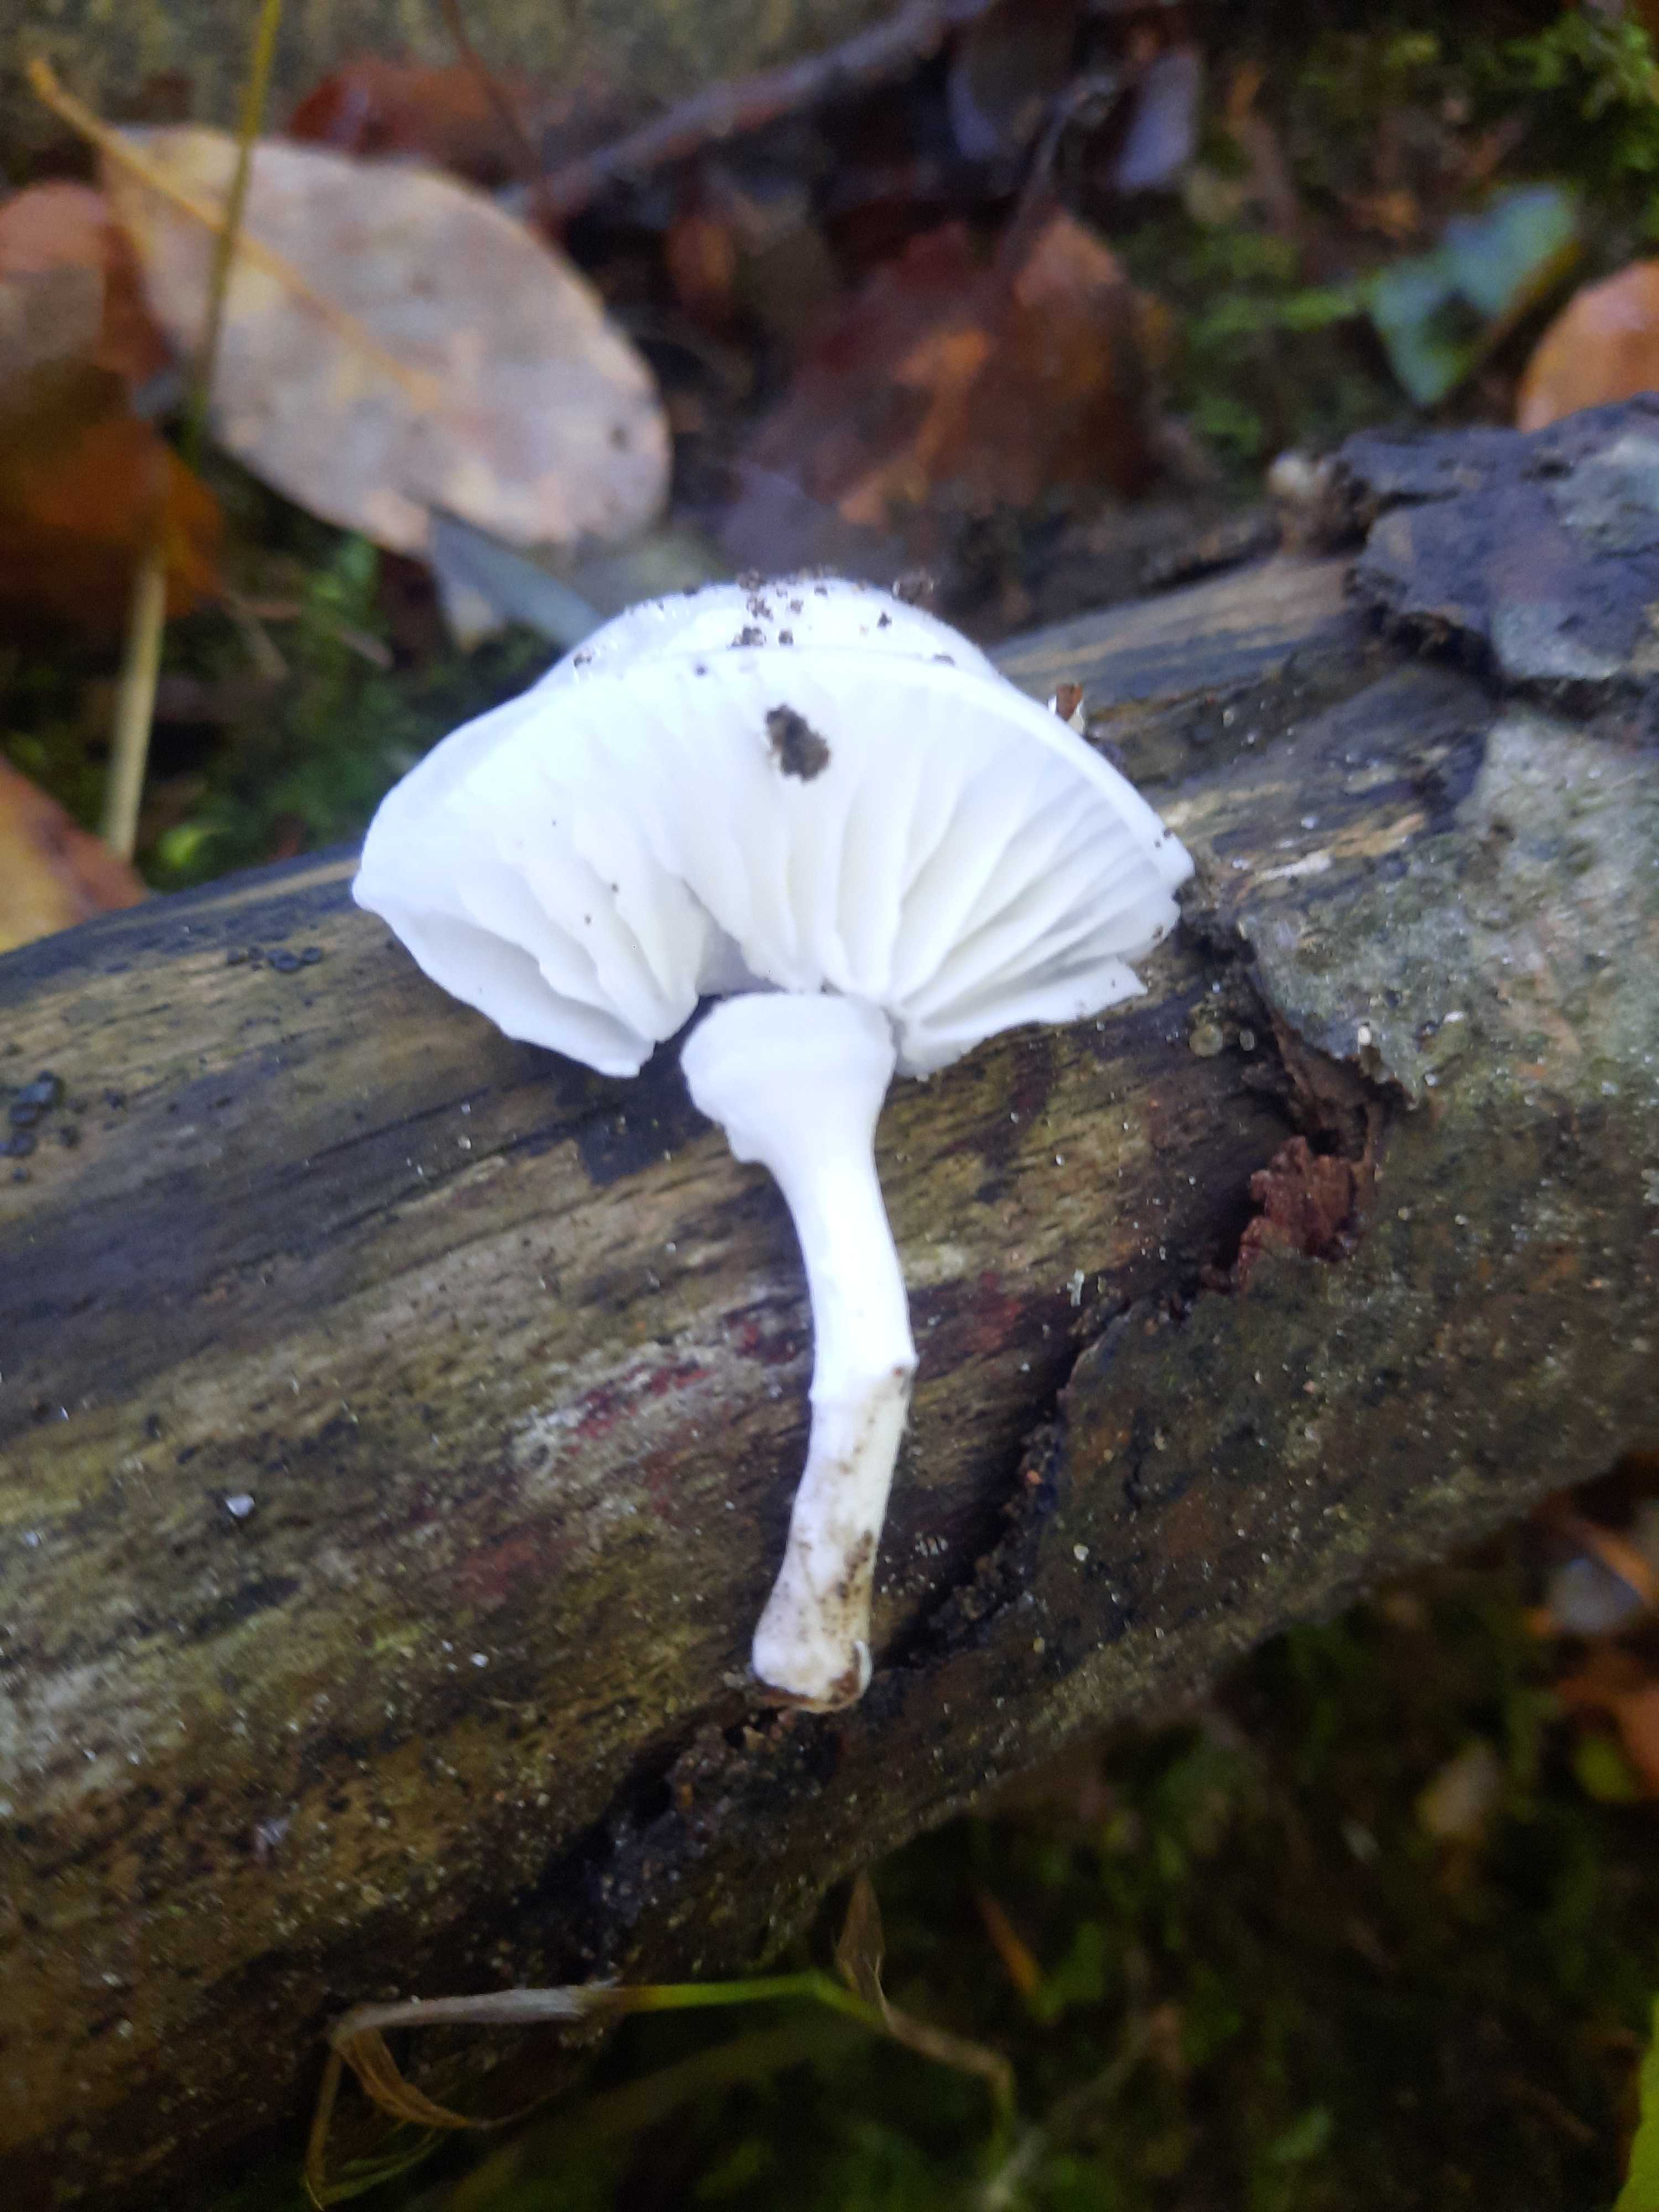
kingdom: Fungi
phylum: Basidiomycota
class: Agaricomycetes
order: Agaricales
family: Physalacriaceae
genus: Mucidula
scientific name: Mucidula mucida
